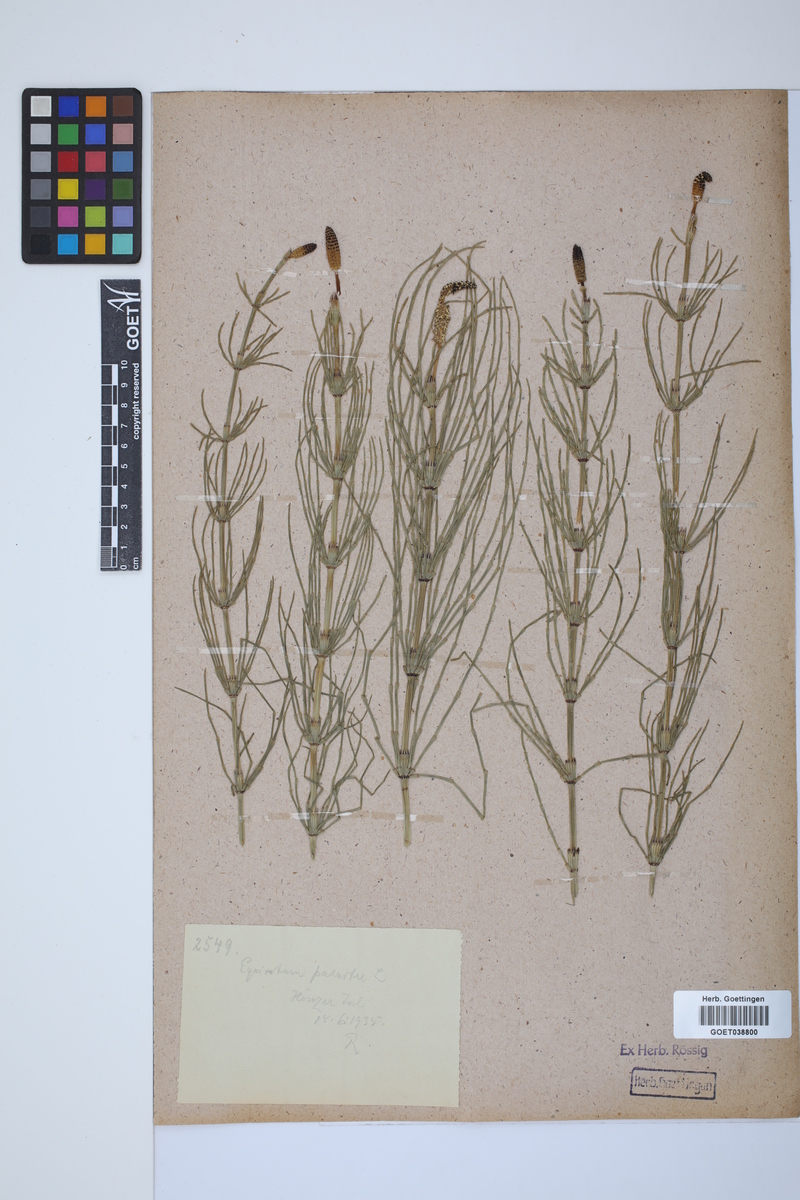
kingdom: Plantae
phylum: Tracheophyta
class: Polypodiopsida
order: Equisetales
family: Equisetaceae
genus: Equisetum
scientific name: Equisetum palustre
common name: Marsh horsetail
